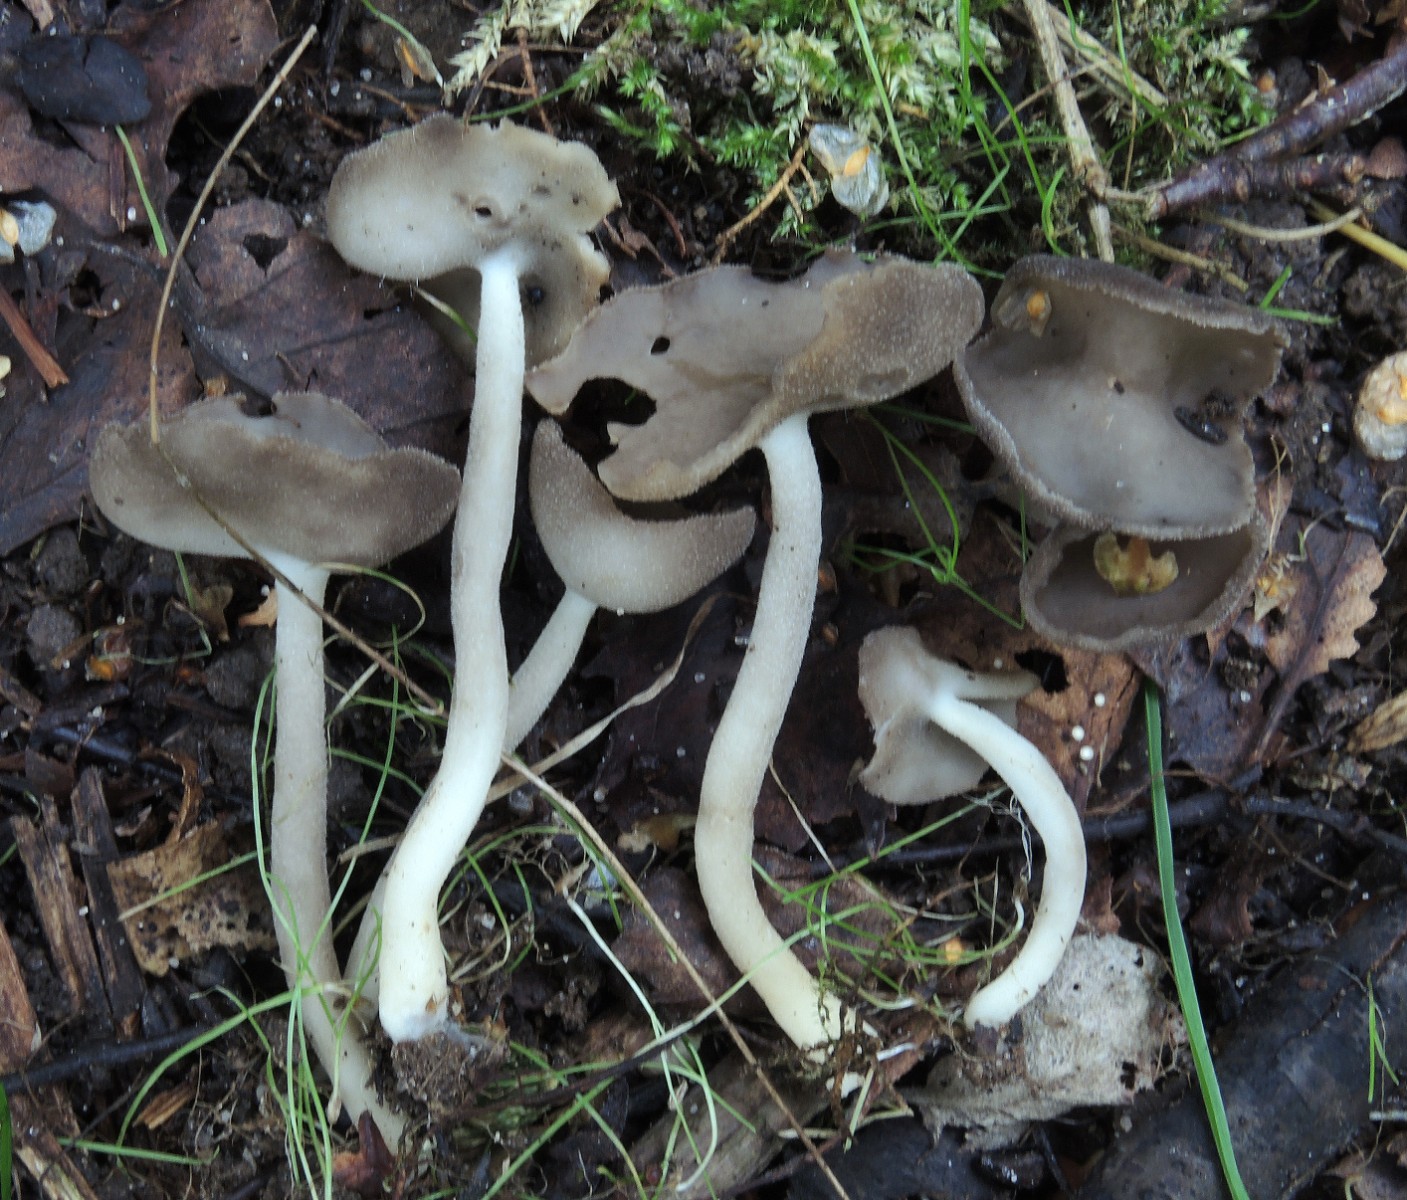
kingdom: Fungi
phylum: Ascomycota
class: Pezizomycetes
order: Pezizales
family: Helvellaceae
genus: Helvella
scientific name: Helvella fibrosa
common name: dunstokket foldhat
